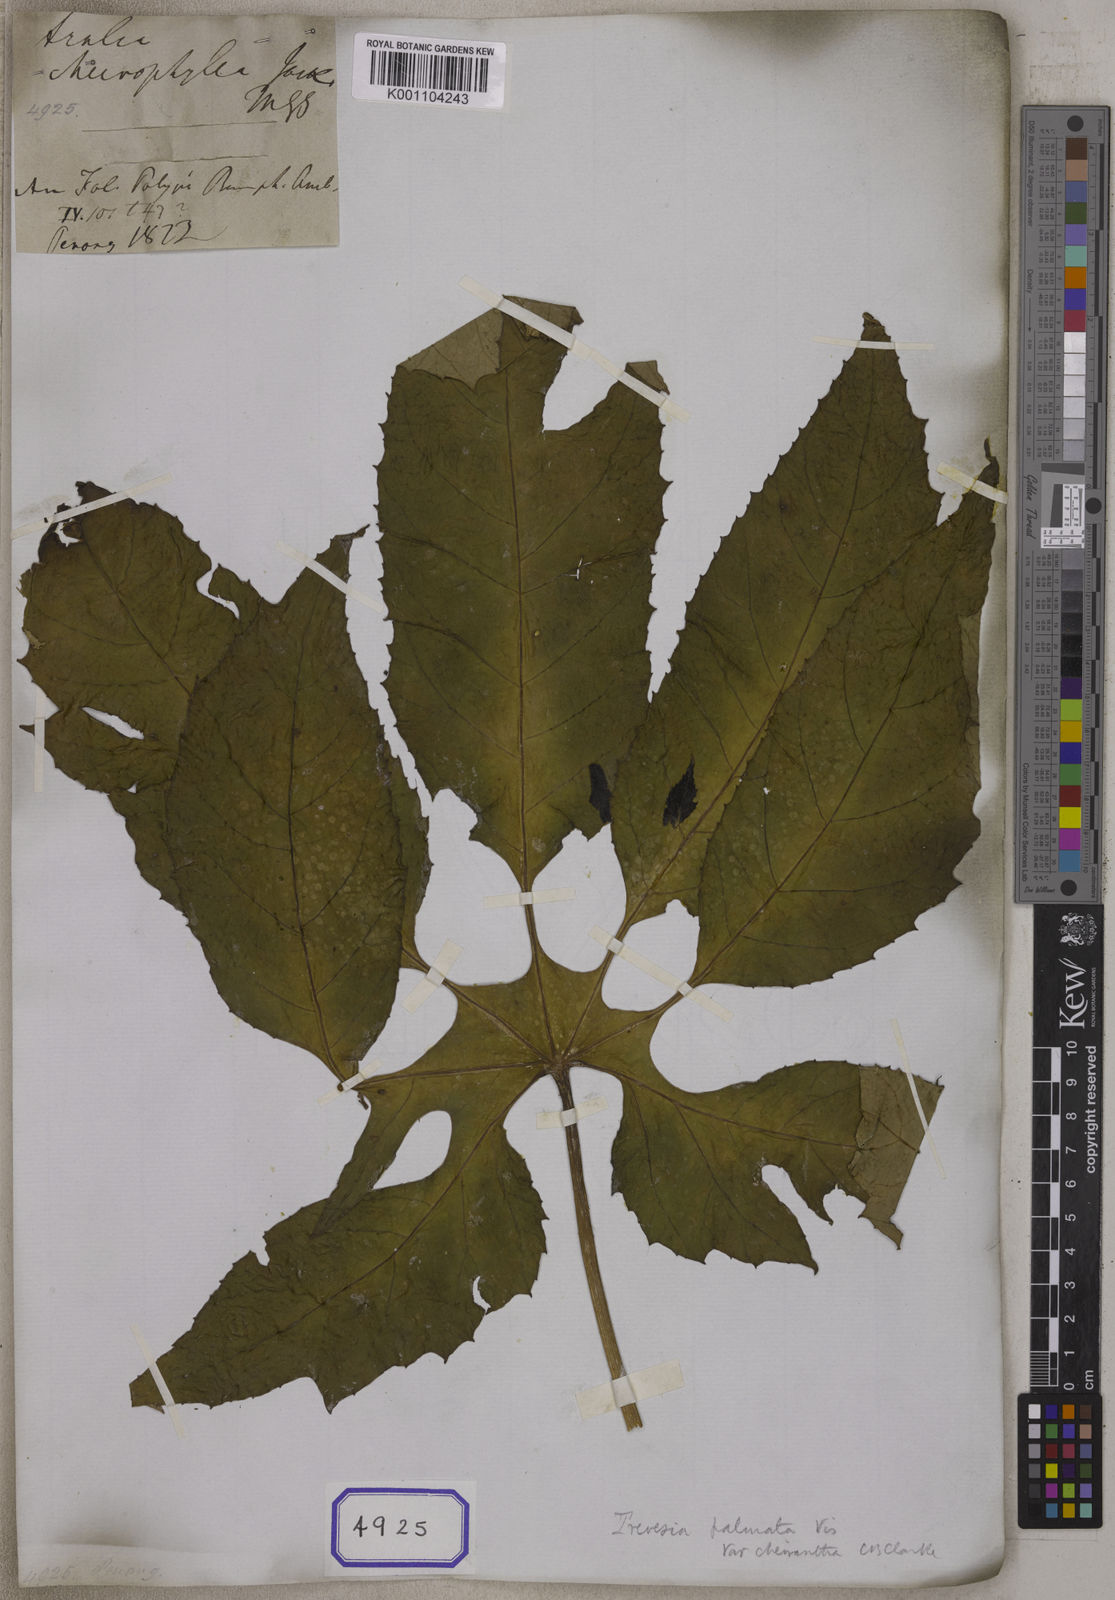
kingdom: Plantae
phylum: Tracheophyta
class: Magnoliopsida
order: Apiales
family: Araliaceae
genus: Hedera
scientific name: Hedera
